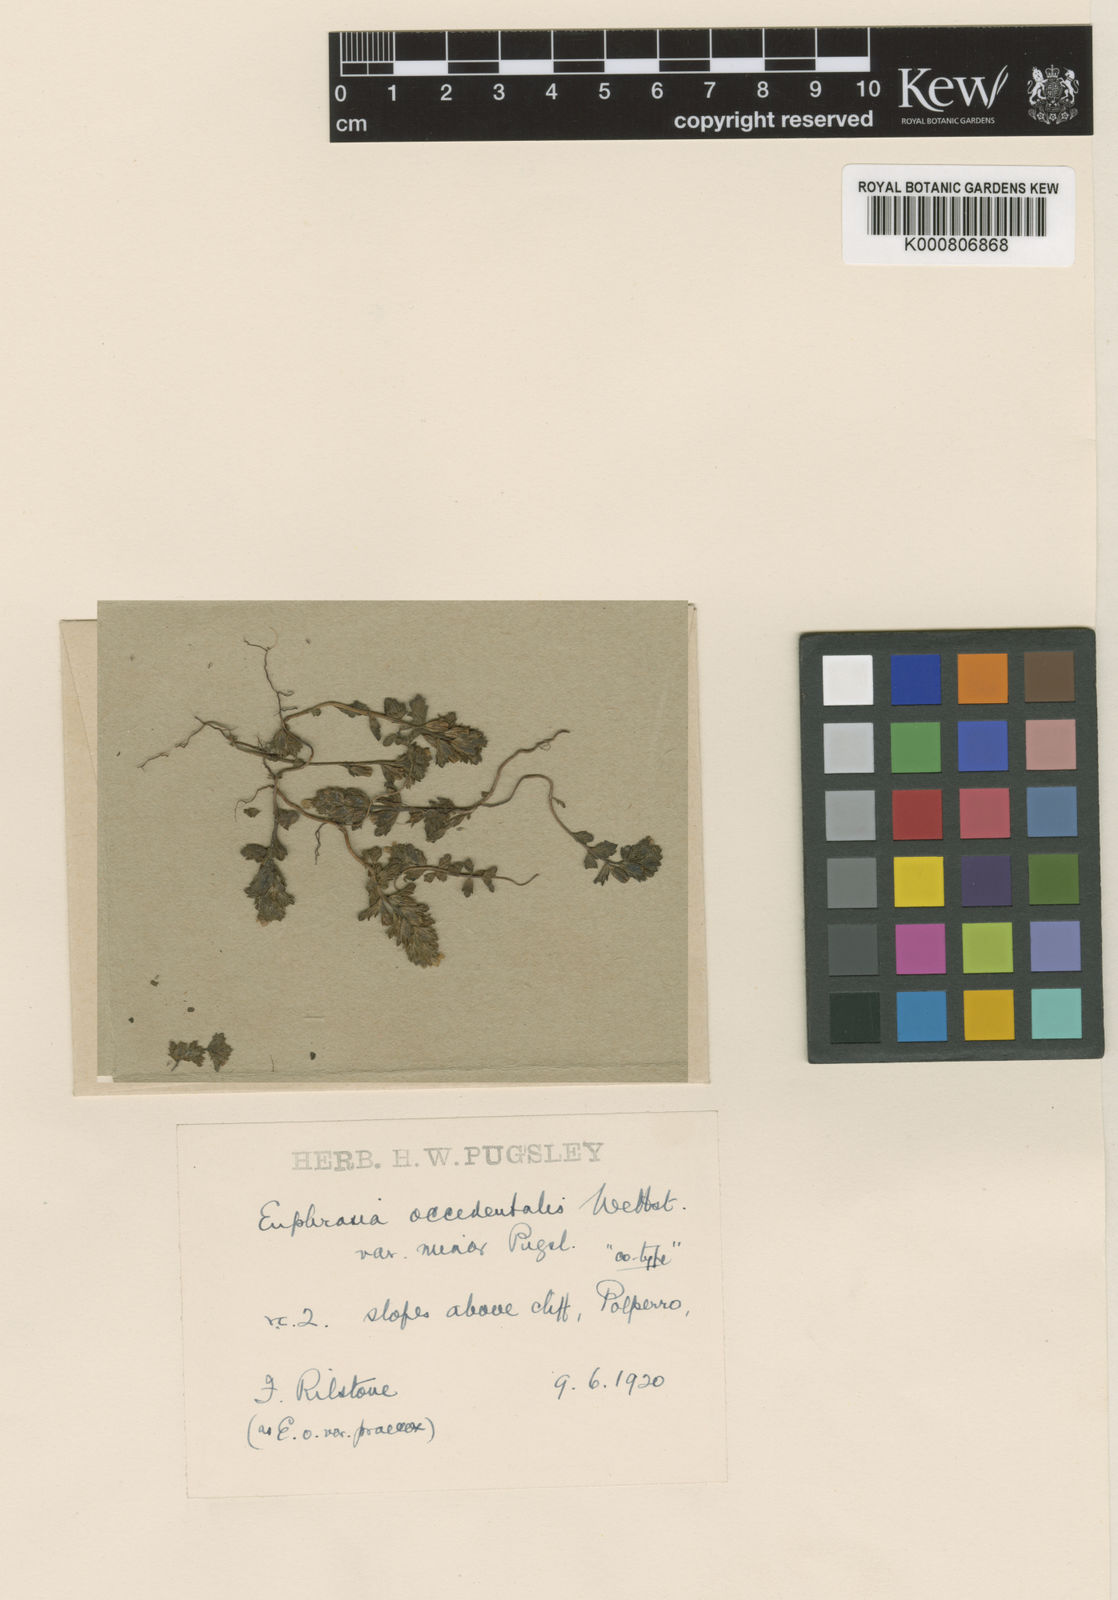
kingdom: Plantae
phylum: Tracheophyta
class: Magnoliopsida
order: Lamiales
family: Orobanchaceae
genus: Euphrasia
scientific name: Euphrasia tetraquetra
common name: Maritime eyebright
